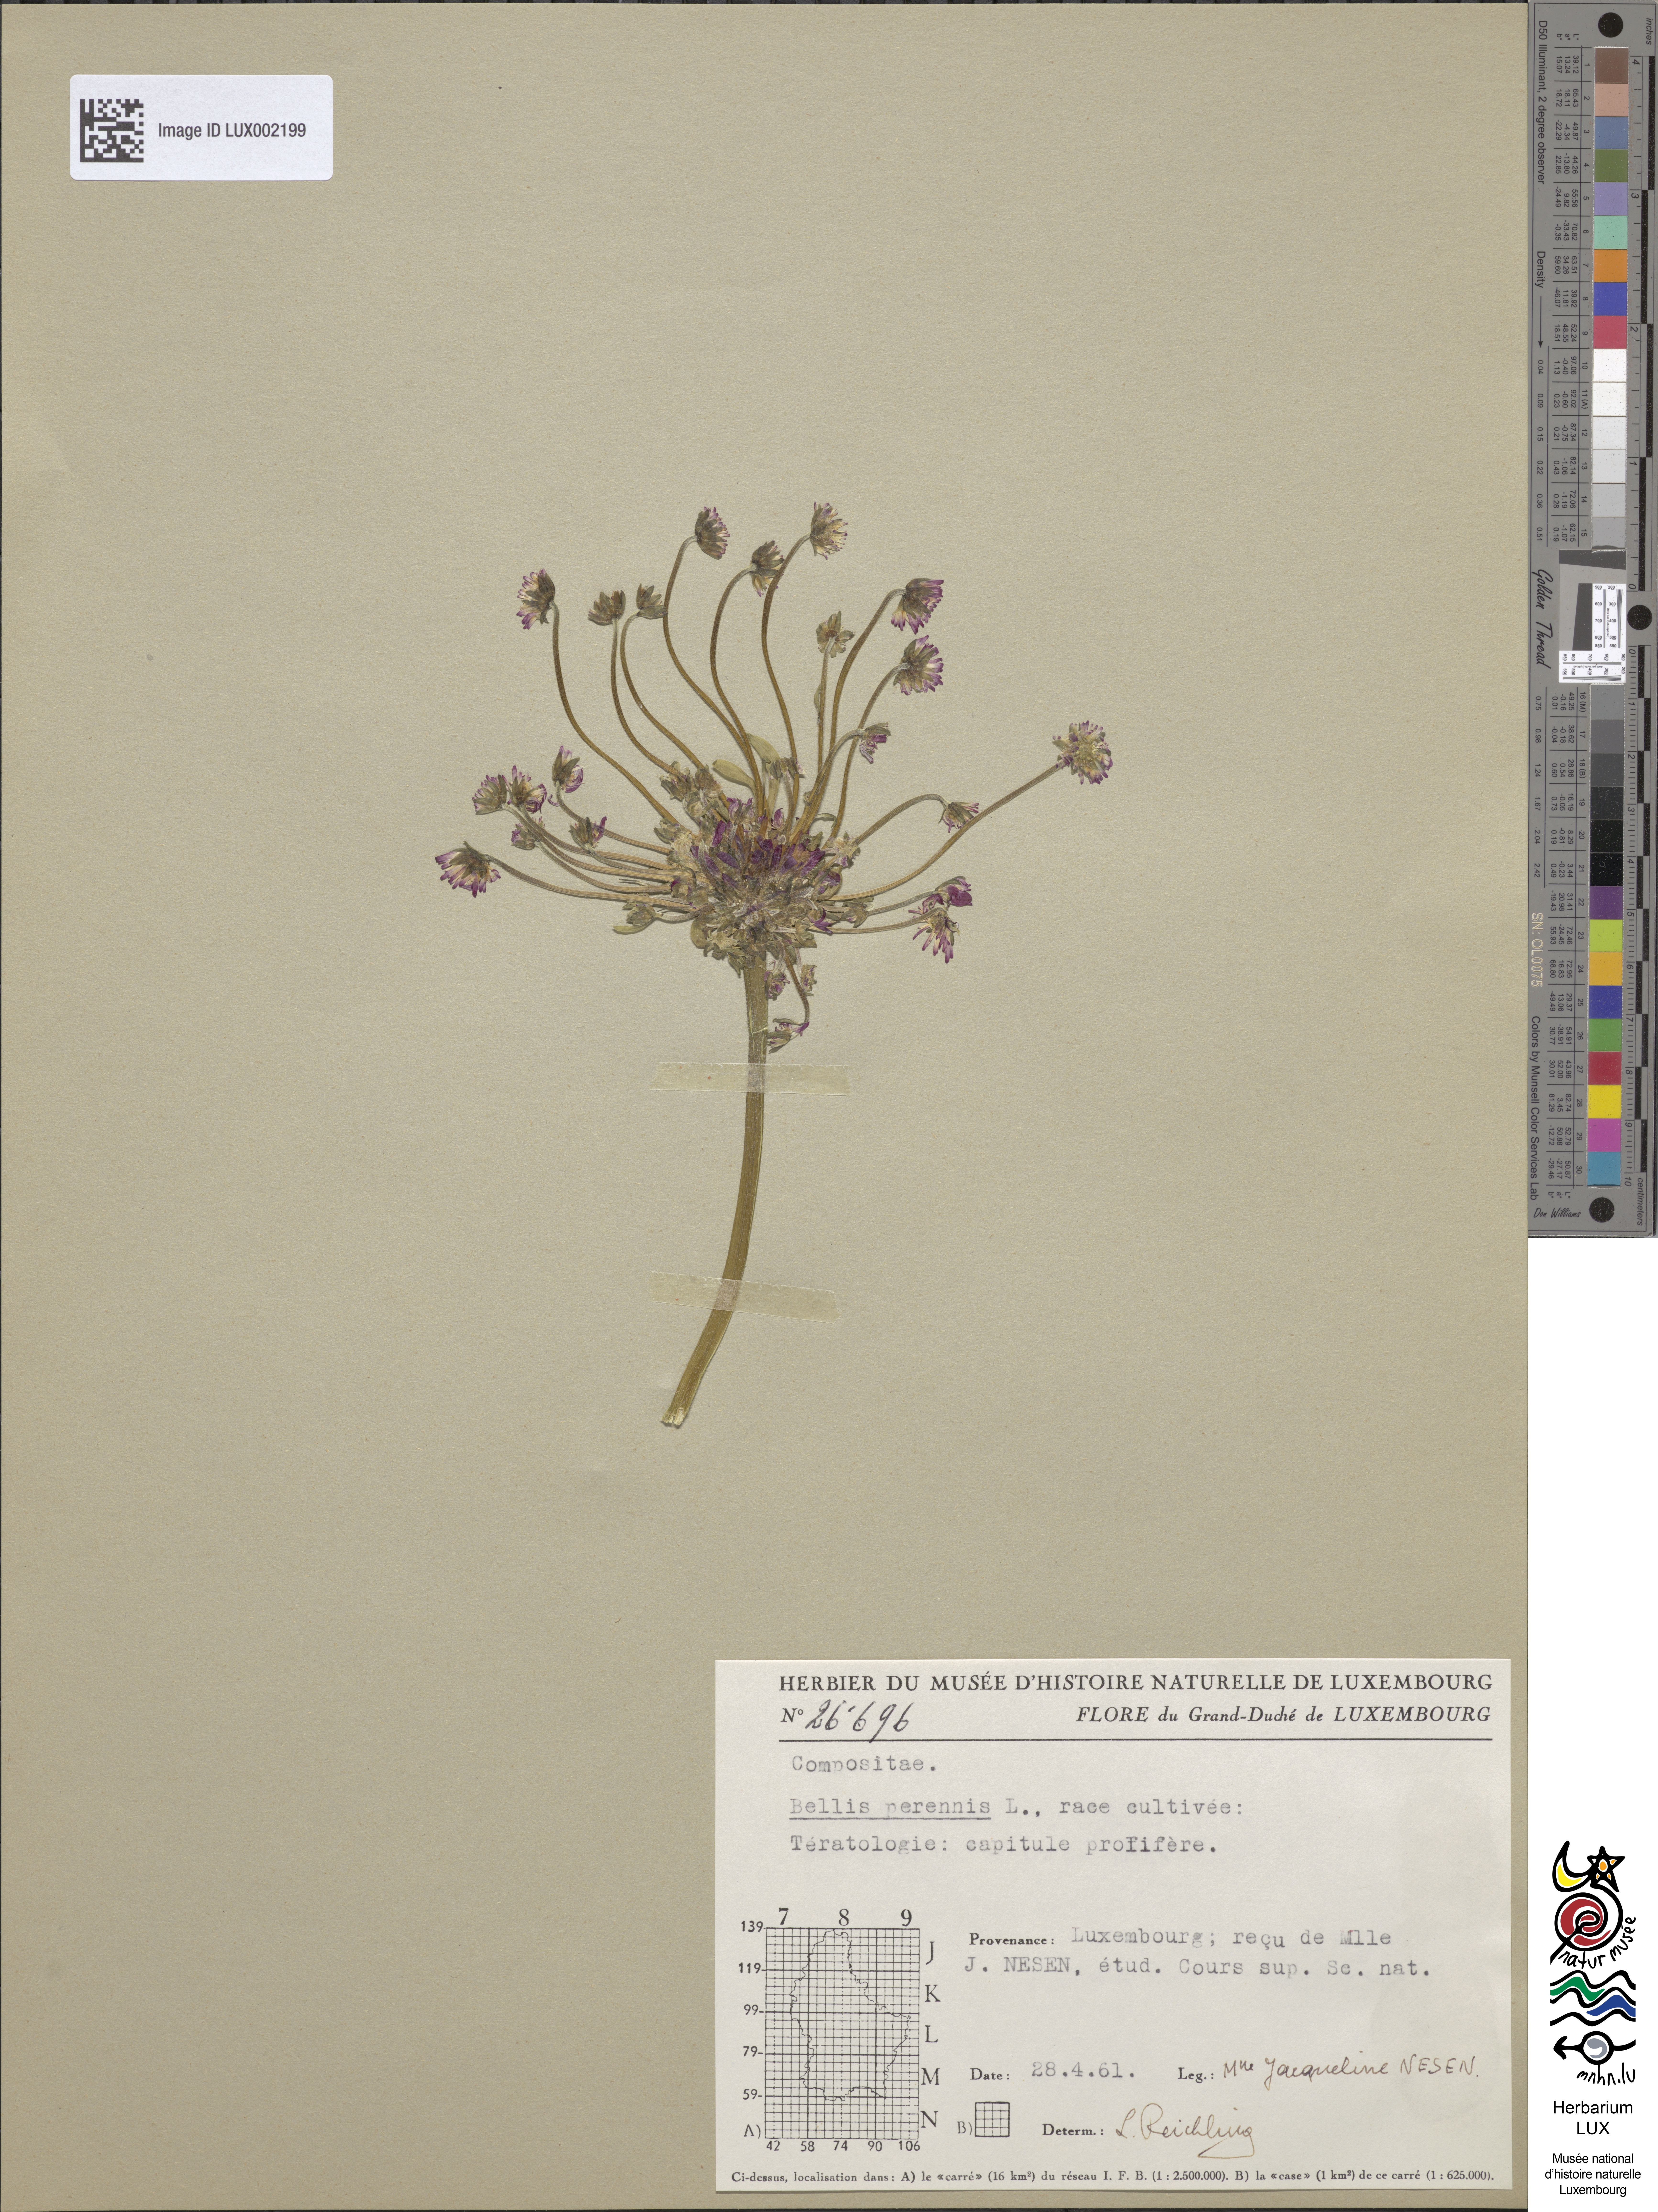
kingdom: Plantae
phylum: Tracheophyta
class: Magnoliopsida
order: Asterales
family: Asteraceae
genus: Bellis
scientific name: Bellis perennis
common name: Lawndaisy
